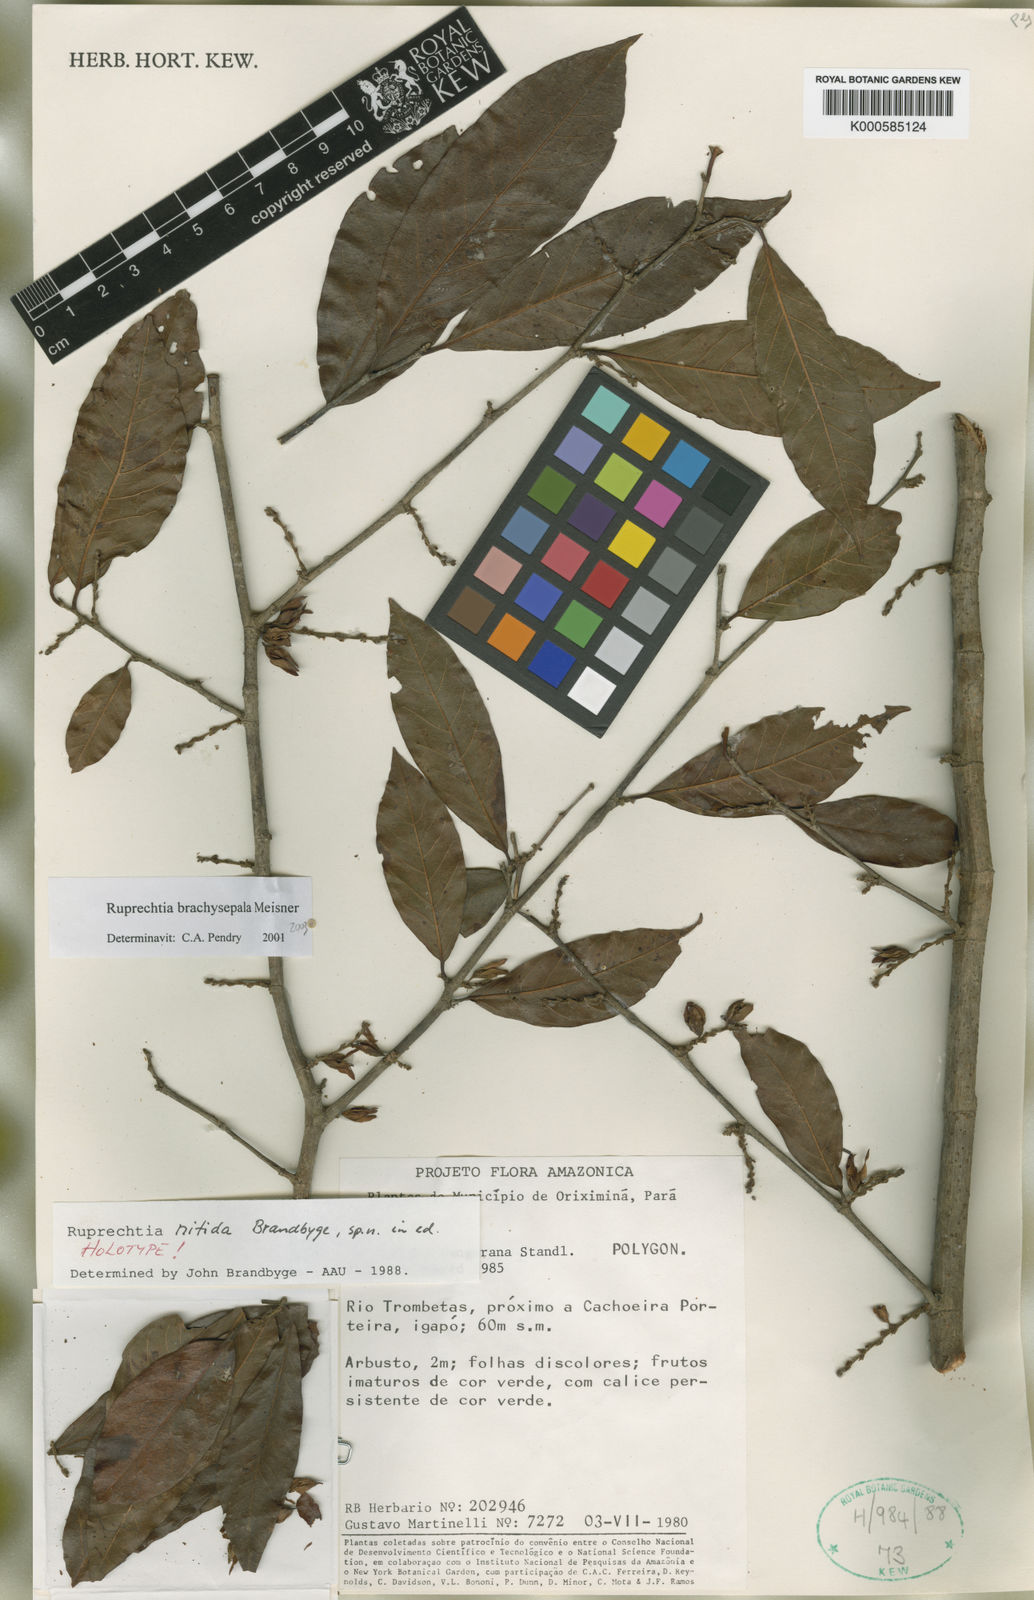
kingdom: Plantae
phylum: Tracheophyta
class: Magnoliopsida
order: Caryophyllales
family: Polygonaceae
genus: Ruprechtia
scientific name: Ruprechtia brachysepala
